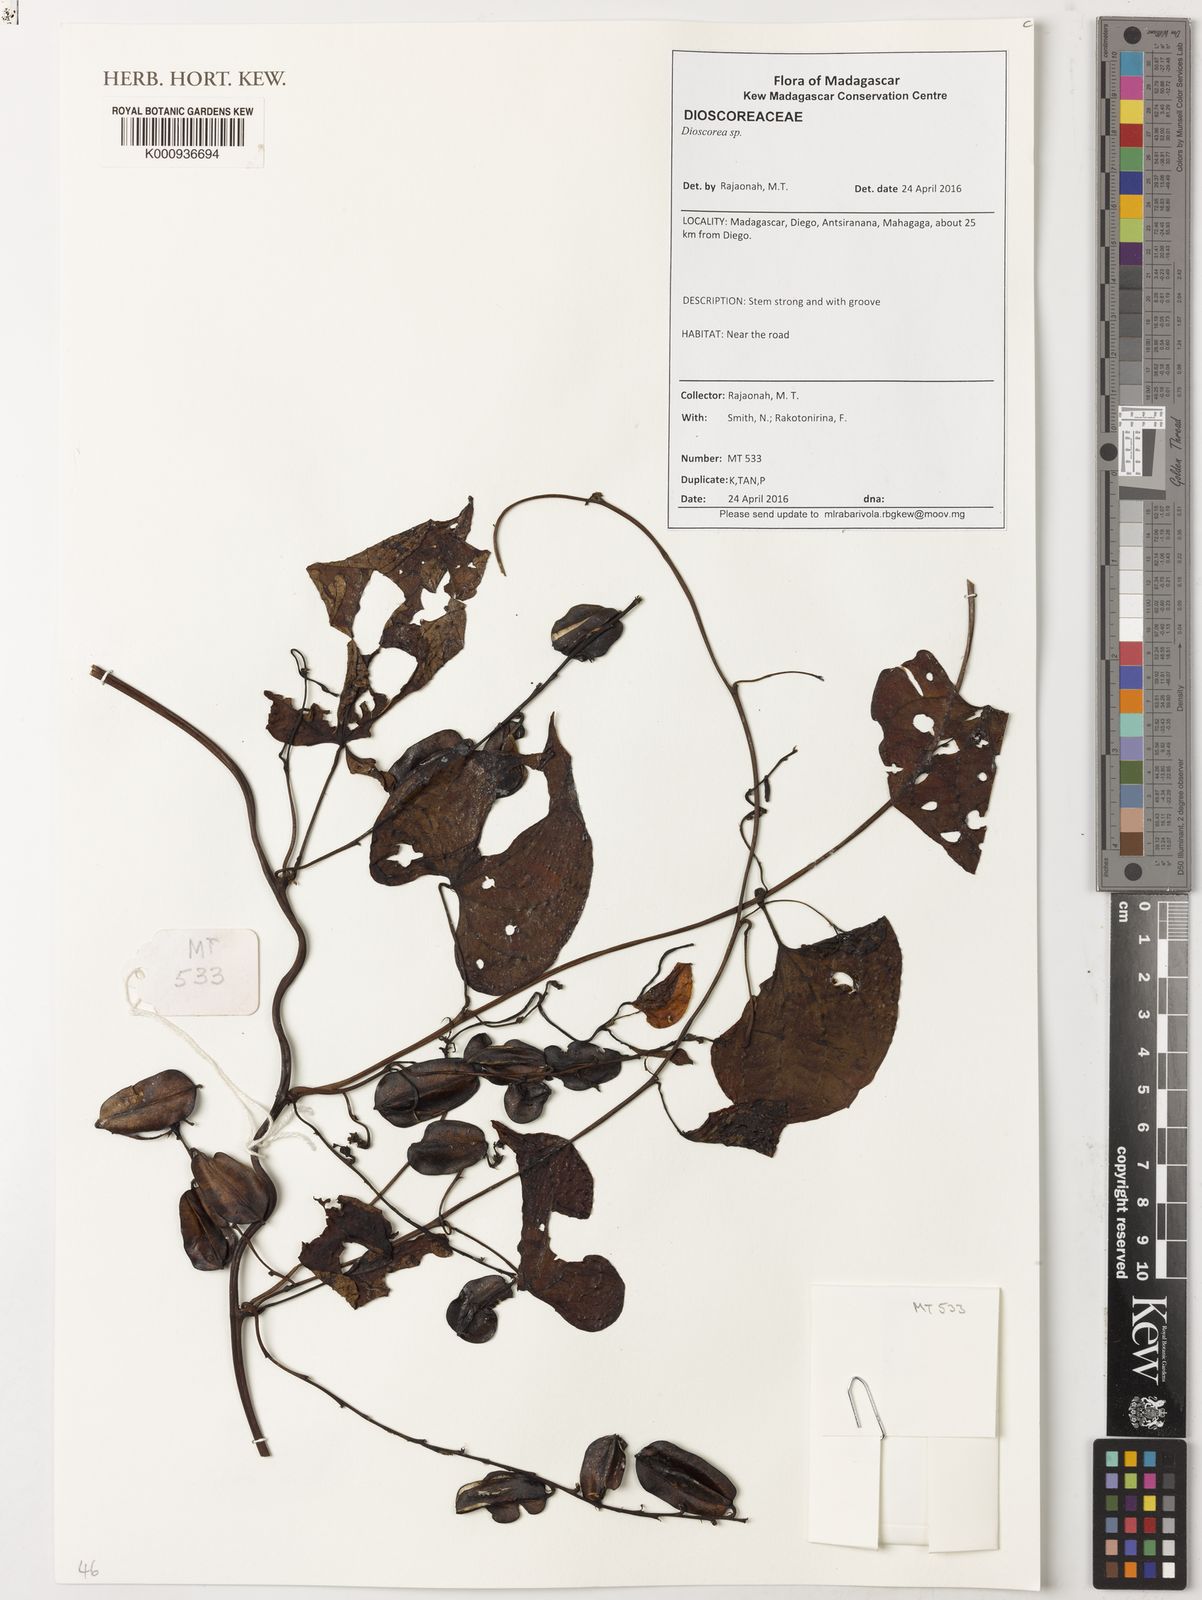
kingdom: Plantae
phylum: Tracheophyta
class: Liliopsida
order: Dioscoreales
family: Dioscoreaceae
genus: Dioscorea
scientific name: Dioscorea
